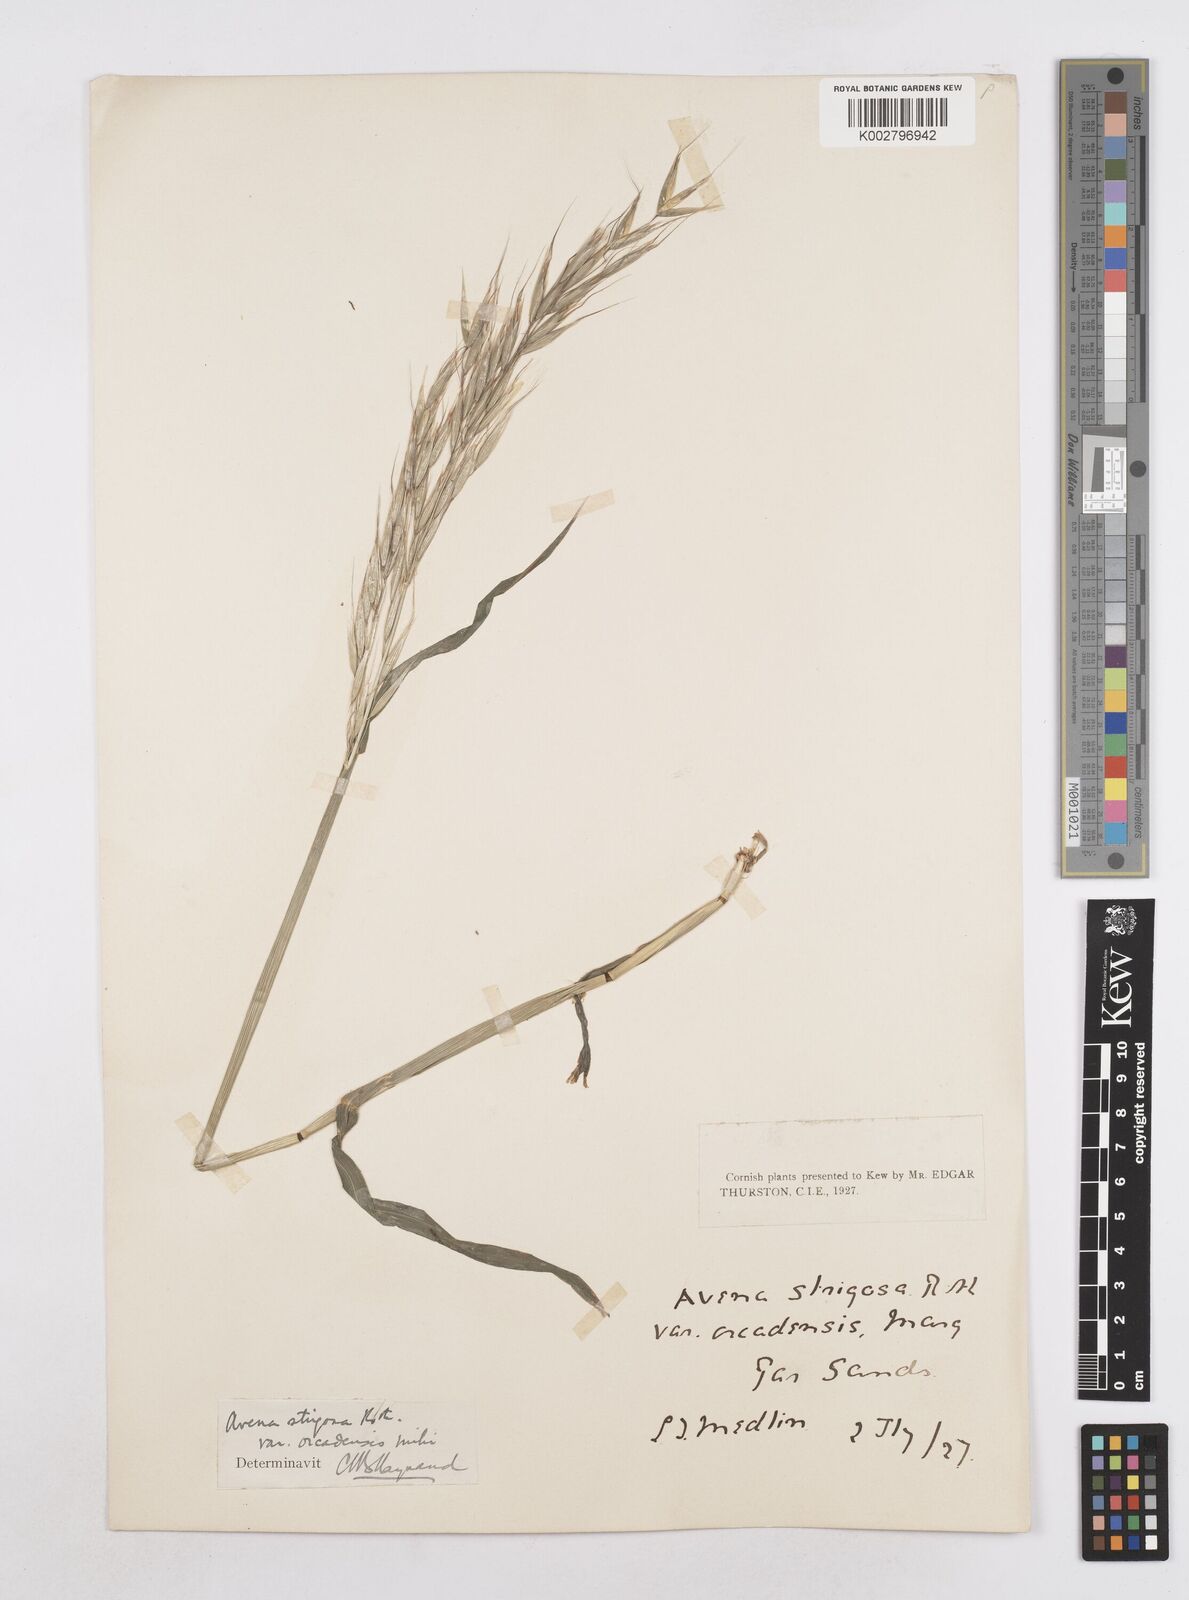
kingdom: Plantae
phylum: Tracheophyta
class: Liliopsida
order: Poales
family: Poaceae
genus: Avena
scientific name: Avena strigosa
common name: Bristle oat
